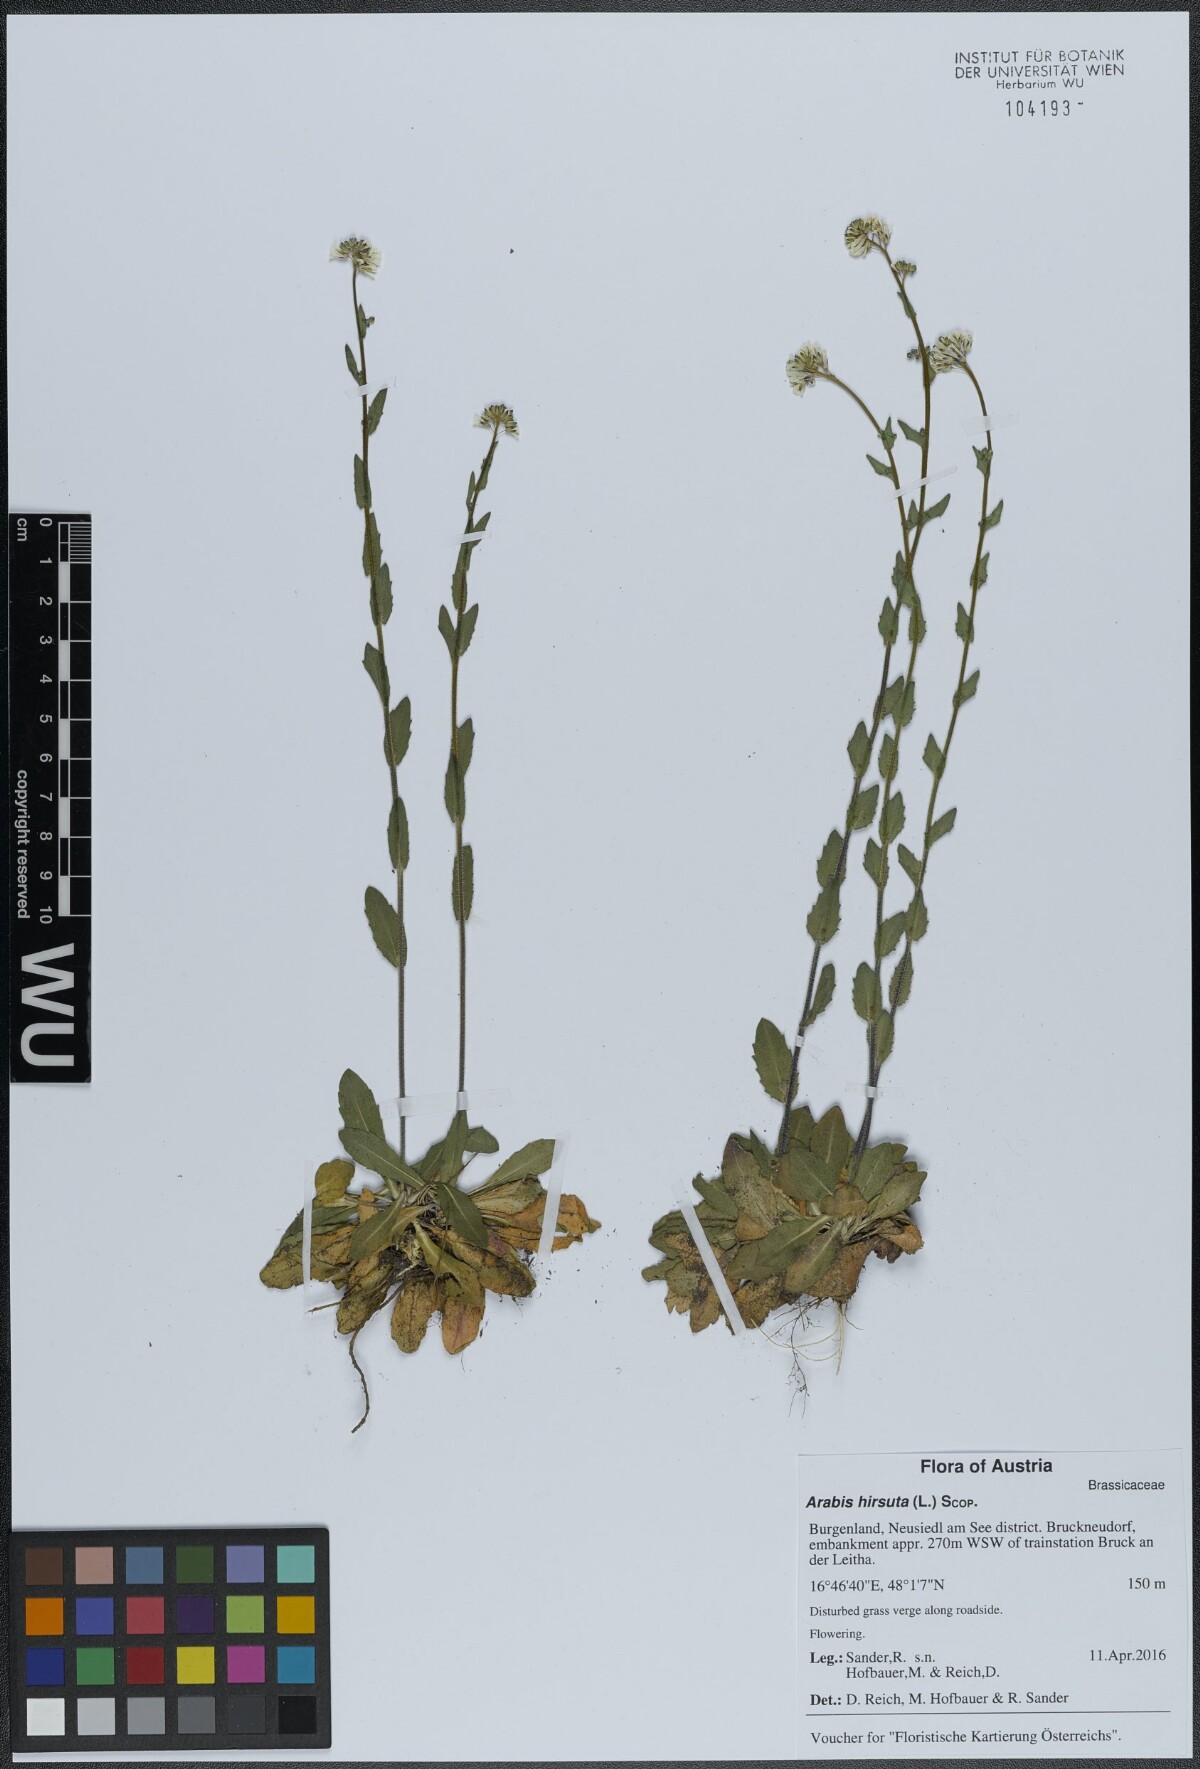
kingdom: Plantae
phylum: Tracheophyta
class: Magnoliopsida
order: Brassicales
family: Brassicaceae
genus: Arabis
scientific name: Arabis hirsuta
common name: Hairy rock-cress
